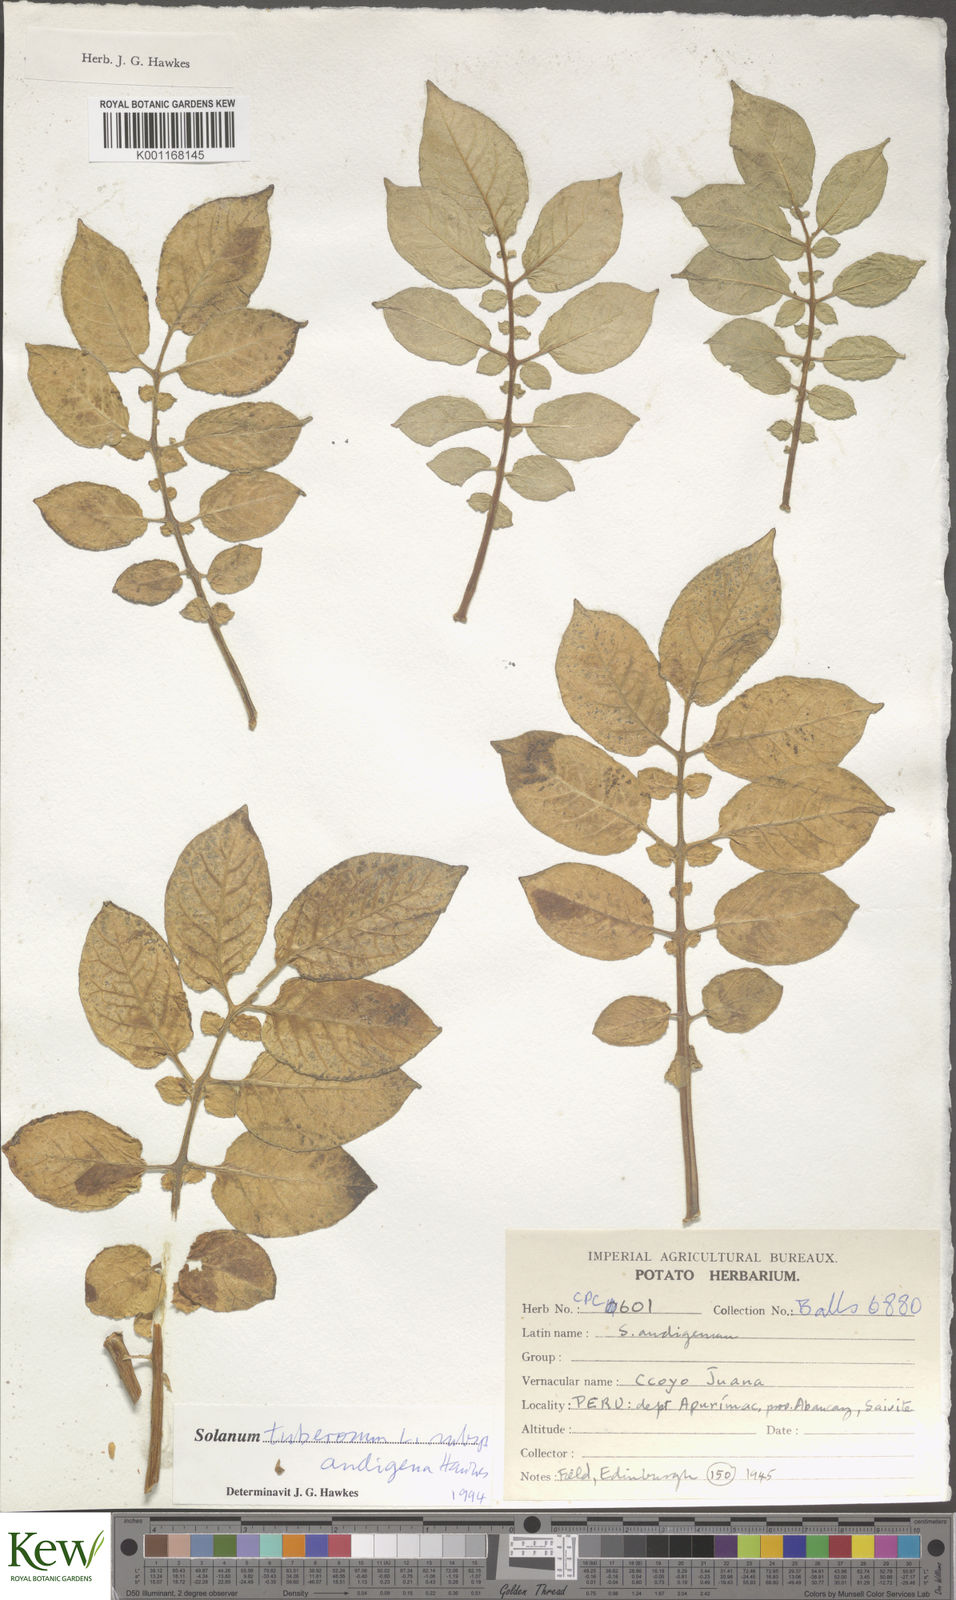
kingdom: Plantae
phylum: Tracheophyta
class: Magnoliopsida
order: Solanales
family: Solanaceae
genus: Solanum
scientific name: Solanum tuberosum
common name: Potato
